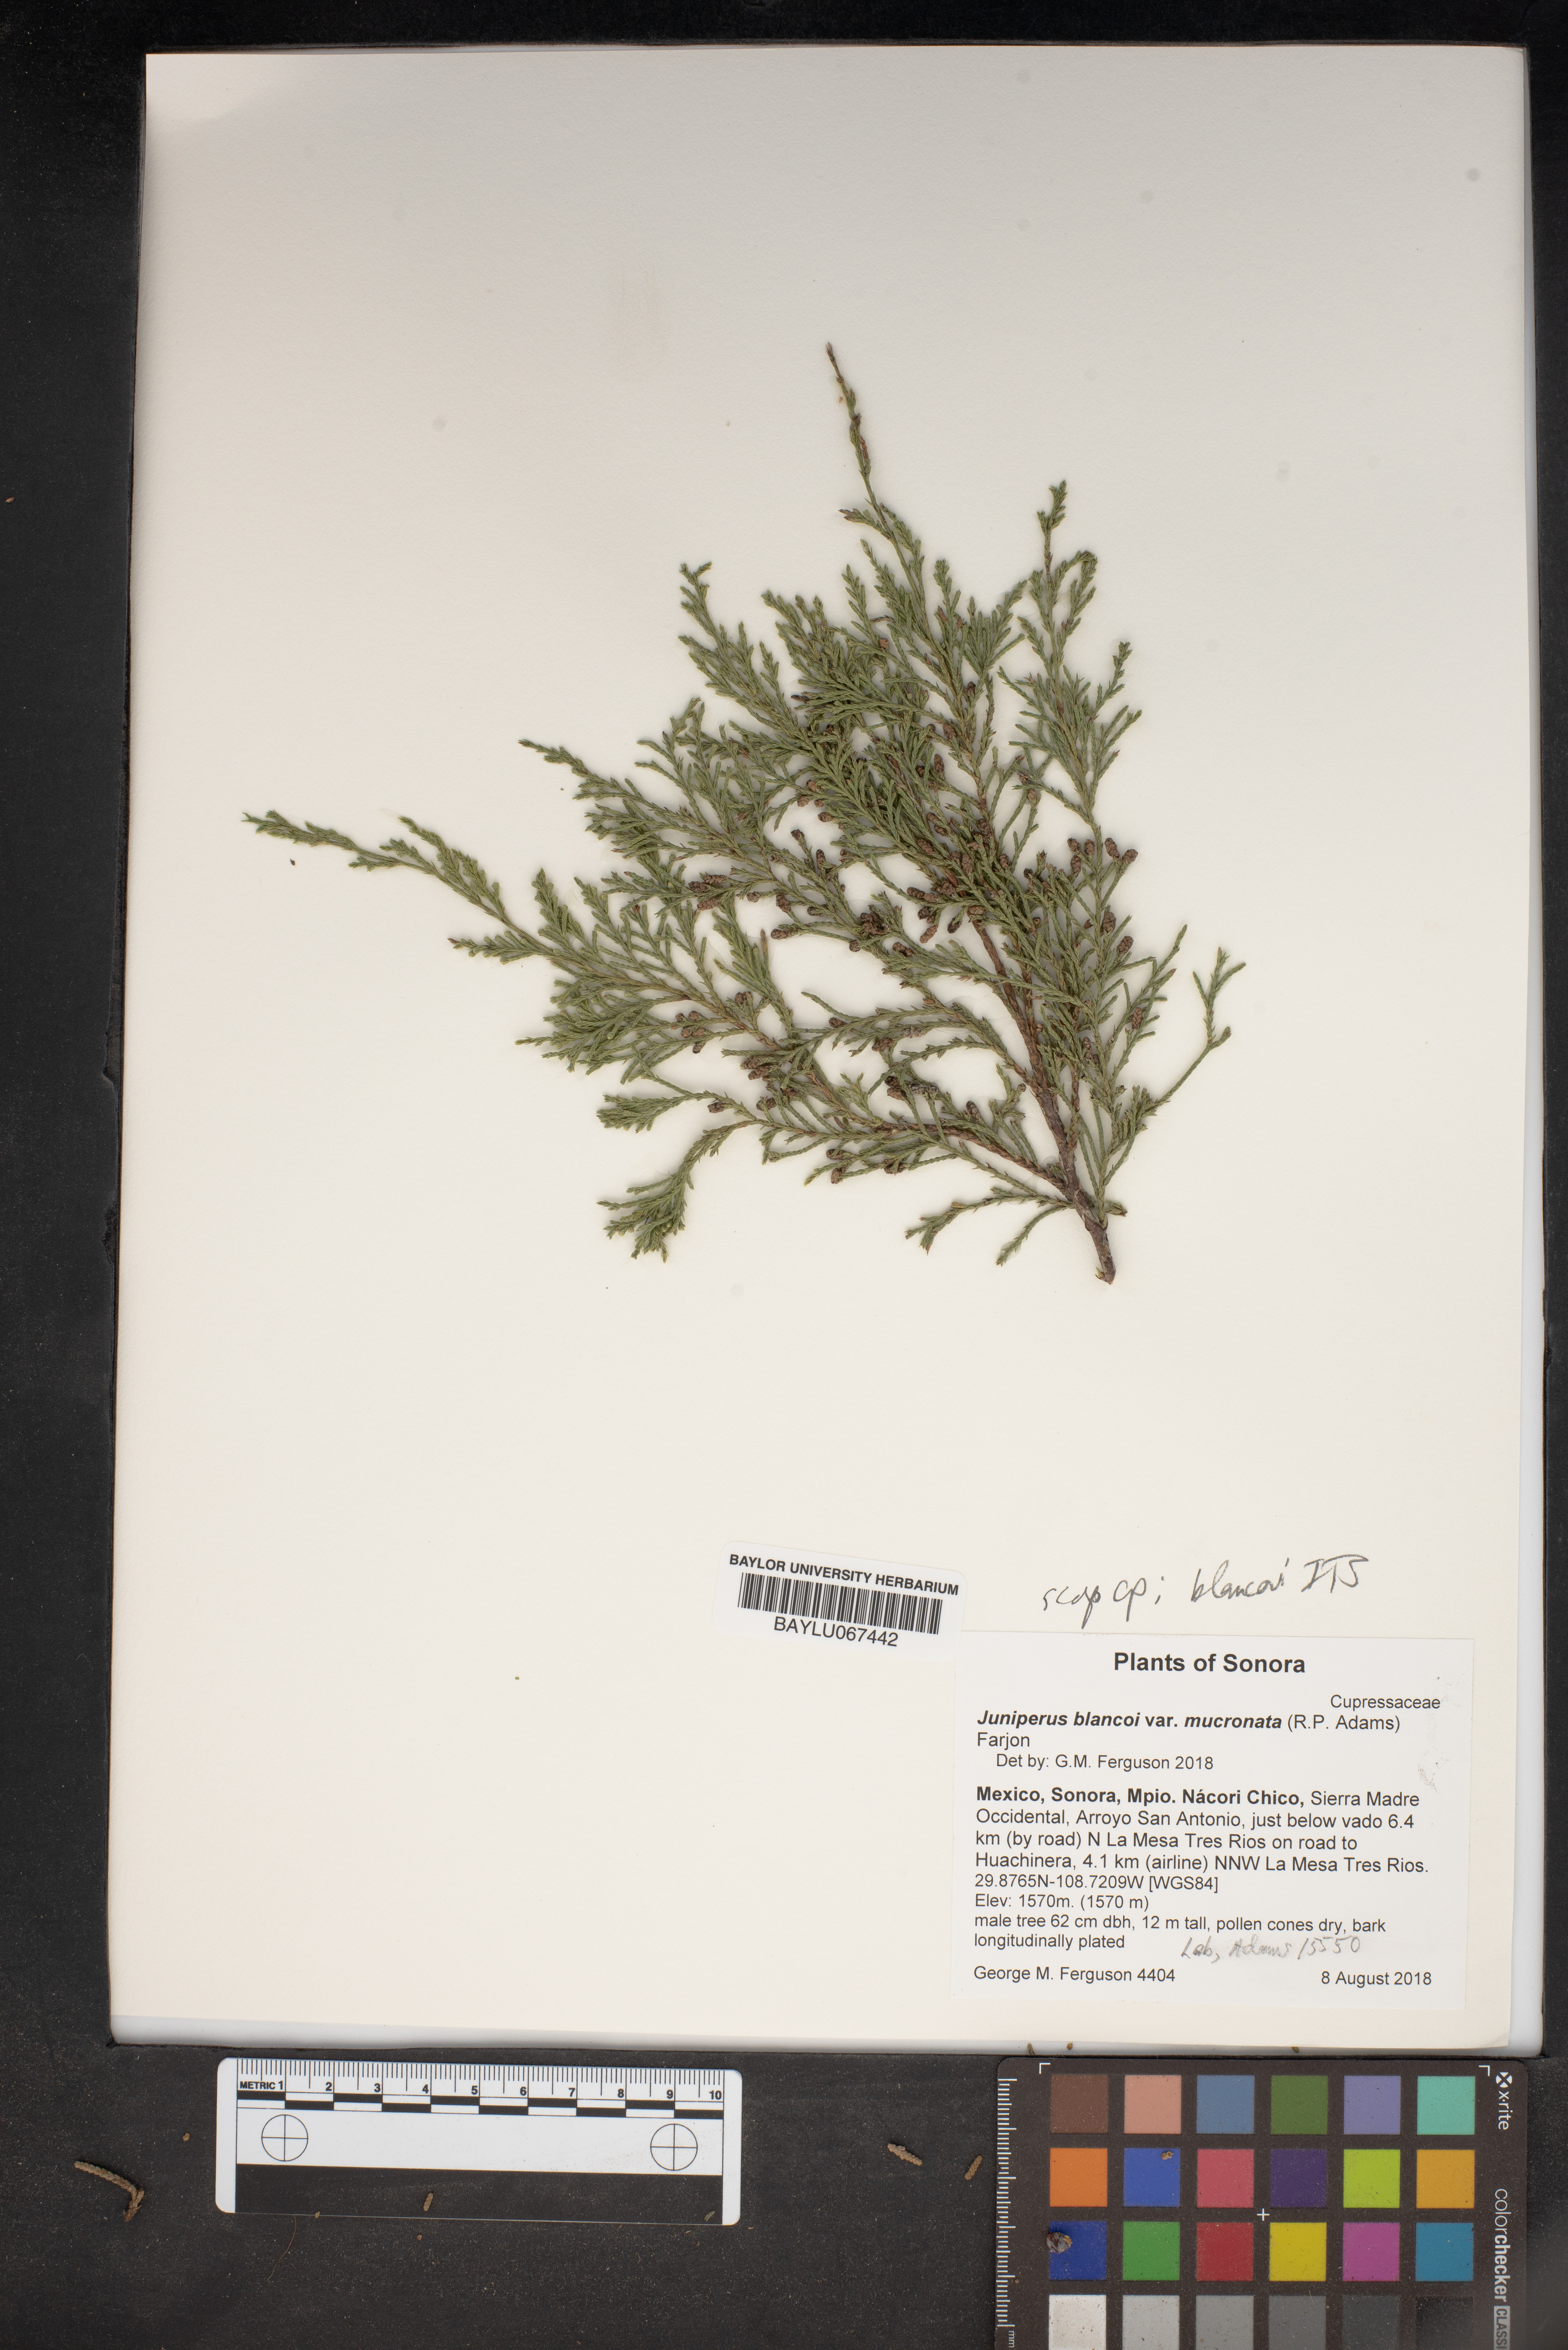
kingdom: Plantae
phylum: Tracheophyta
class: Pinopsida
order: Pinales
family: Cupressaceae
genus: Juniperus
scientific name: Juniperus blancoi
